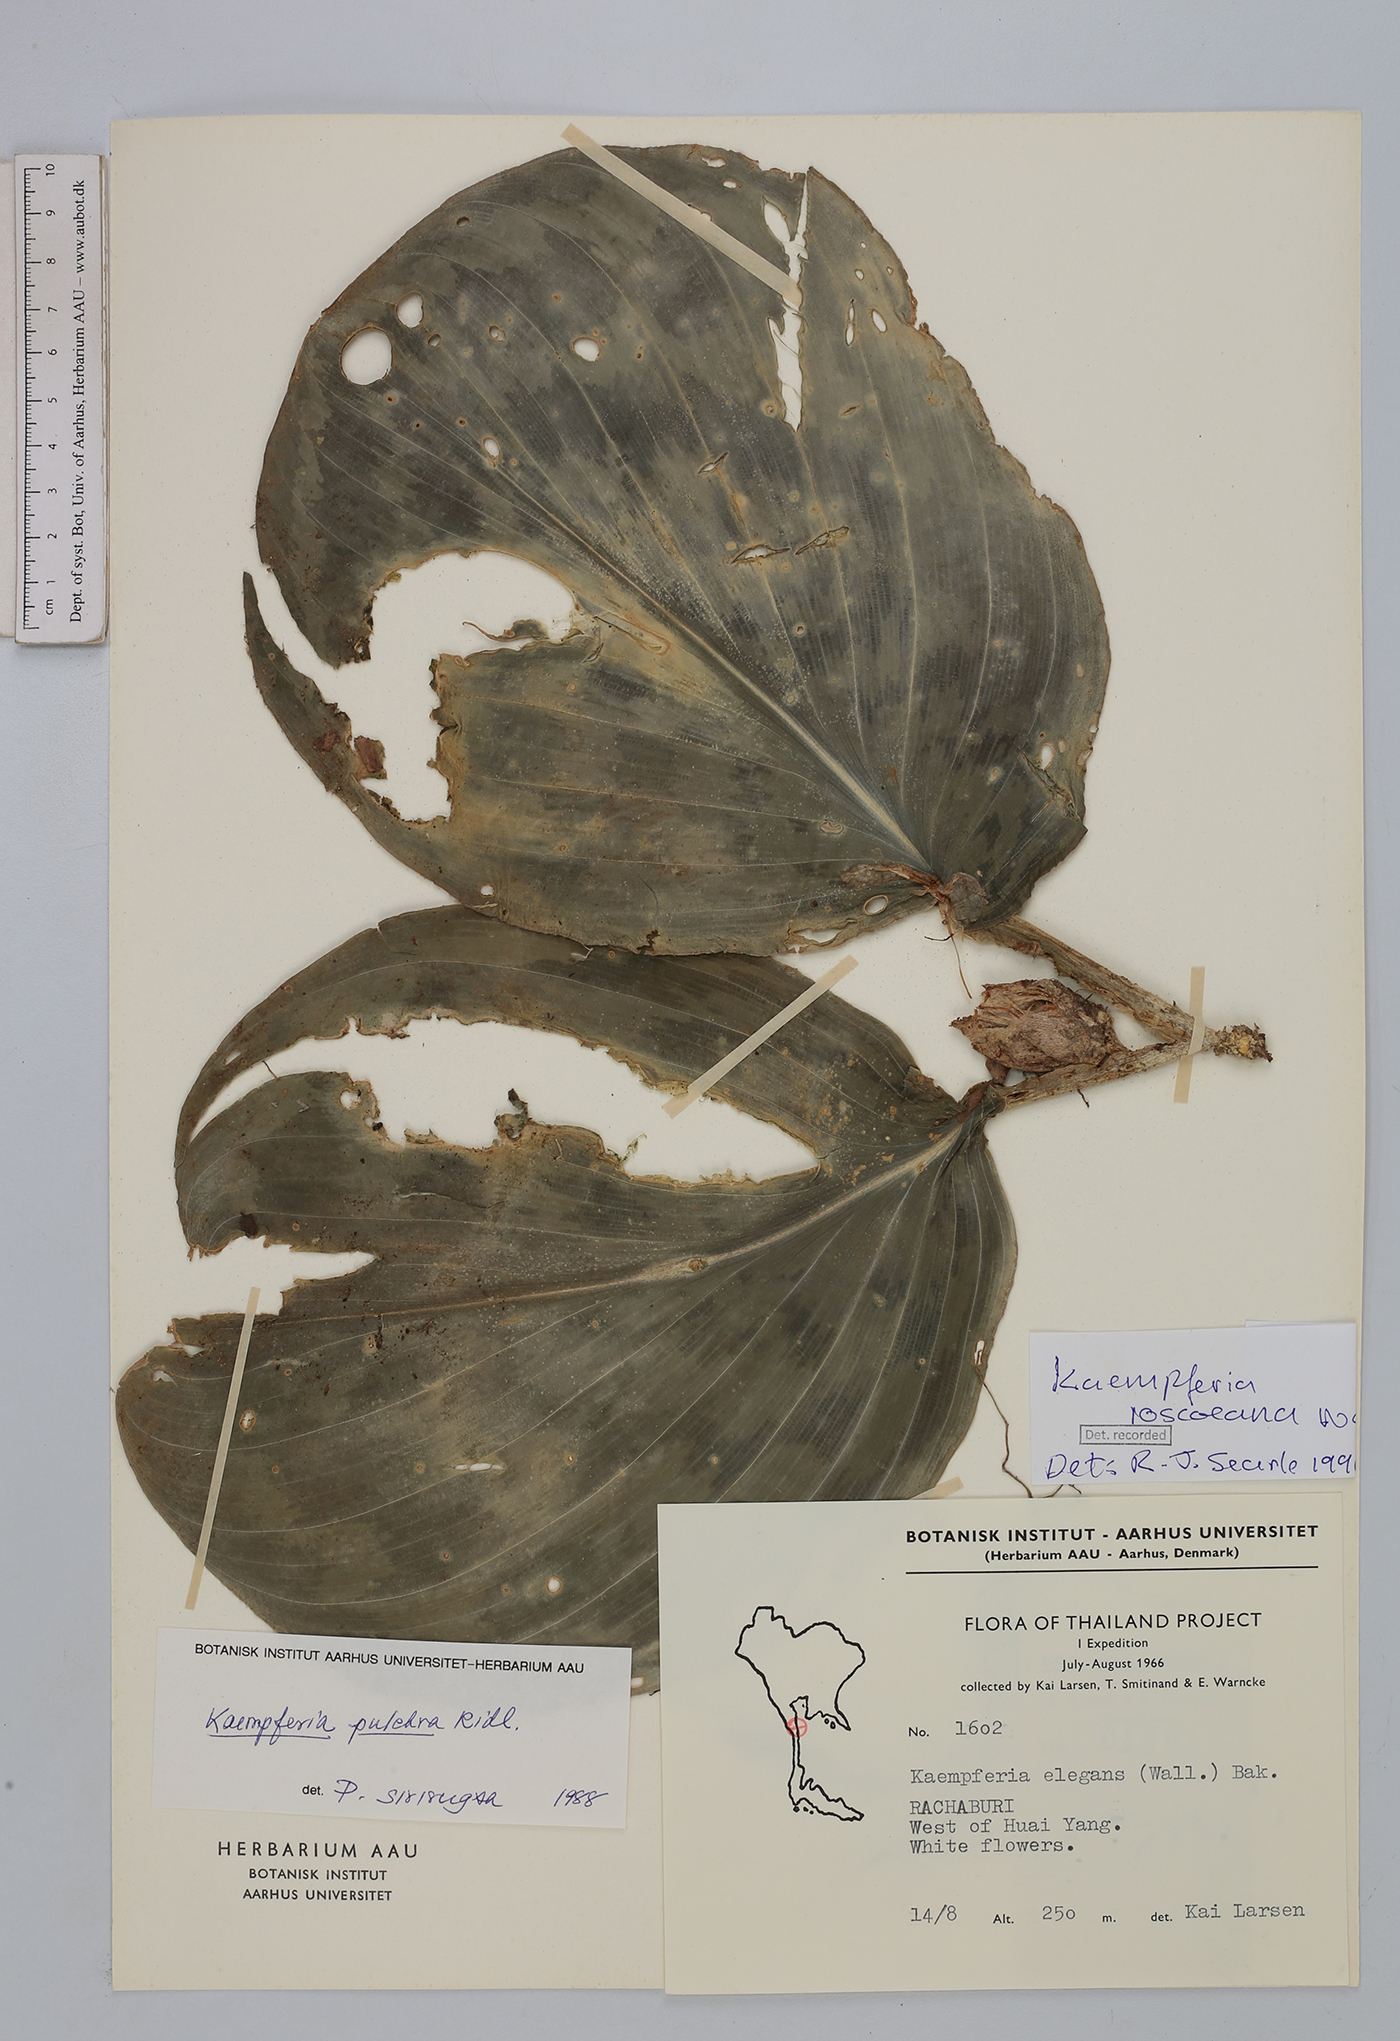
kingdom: Plantae
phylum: Tracheophyta
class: Liliopsida
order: Zingiberales
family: Zingiberaceae
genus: Kaempferia
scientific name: Kaempferia roscoeana
